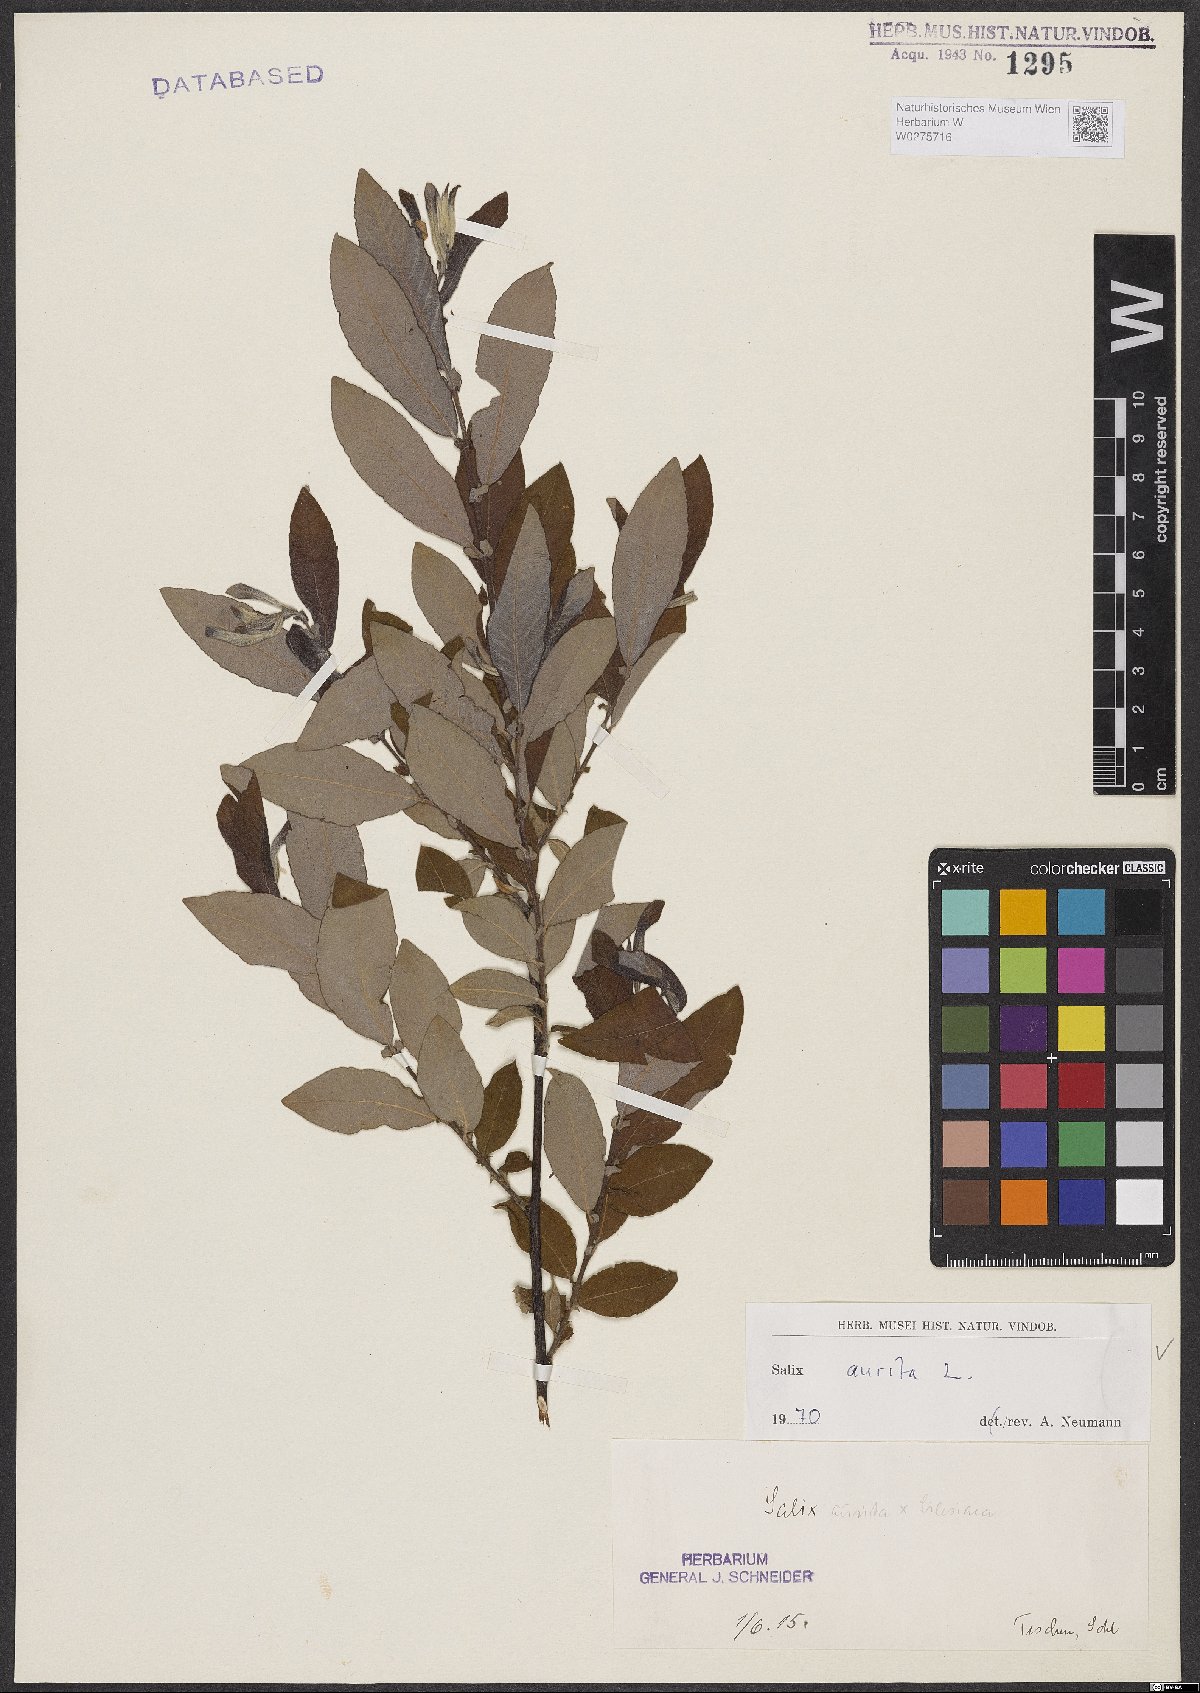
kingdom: Plantae
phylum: Tracheophyta
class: Magnoliopsida
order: Malpighiales
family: Salicaceae
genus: Salix
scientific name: Salix aurita
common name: Eared willow
